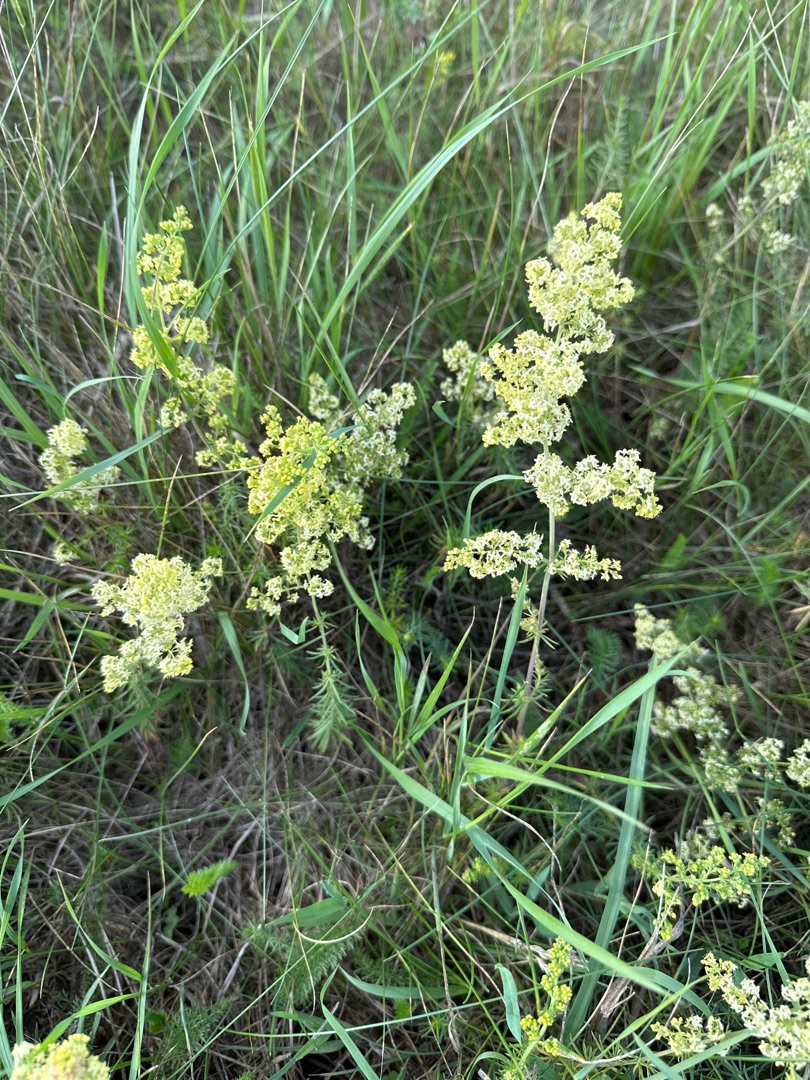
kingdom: Plantae
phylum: Tracheophyta
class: Magnoliopsida
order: Gentianales
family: Rubiaceae
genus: Galium
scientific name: Galium
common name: Hvidgul snerre
